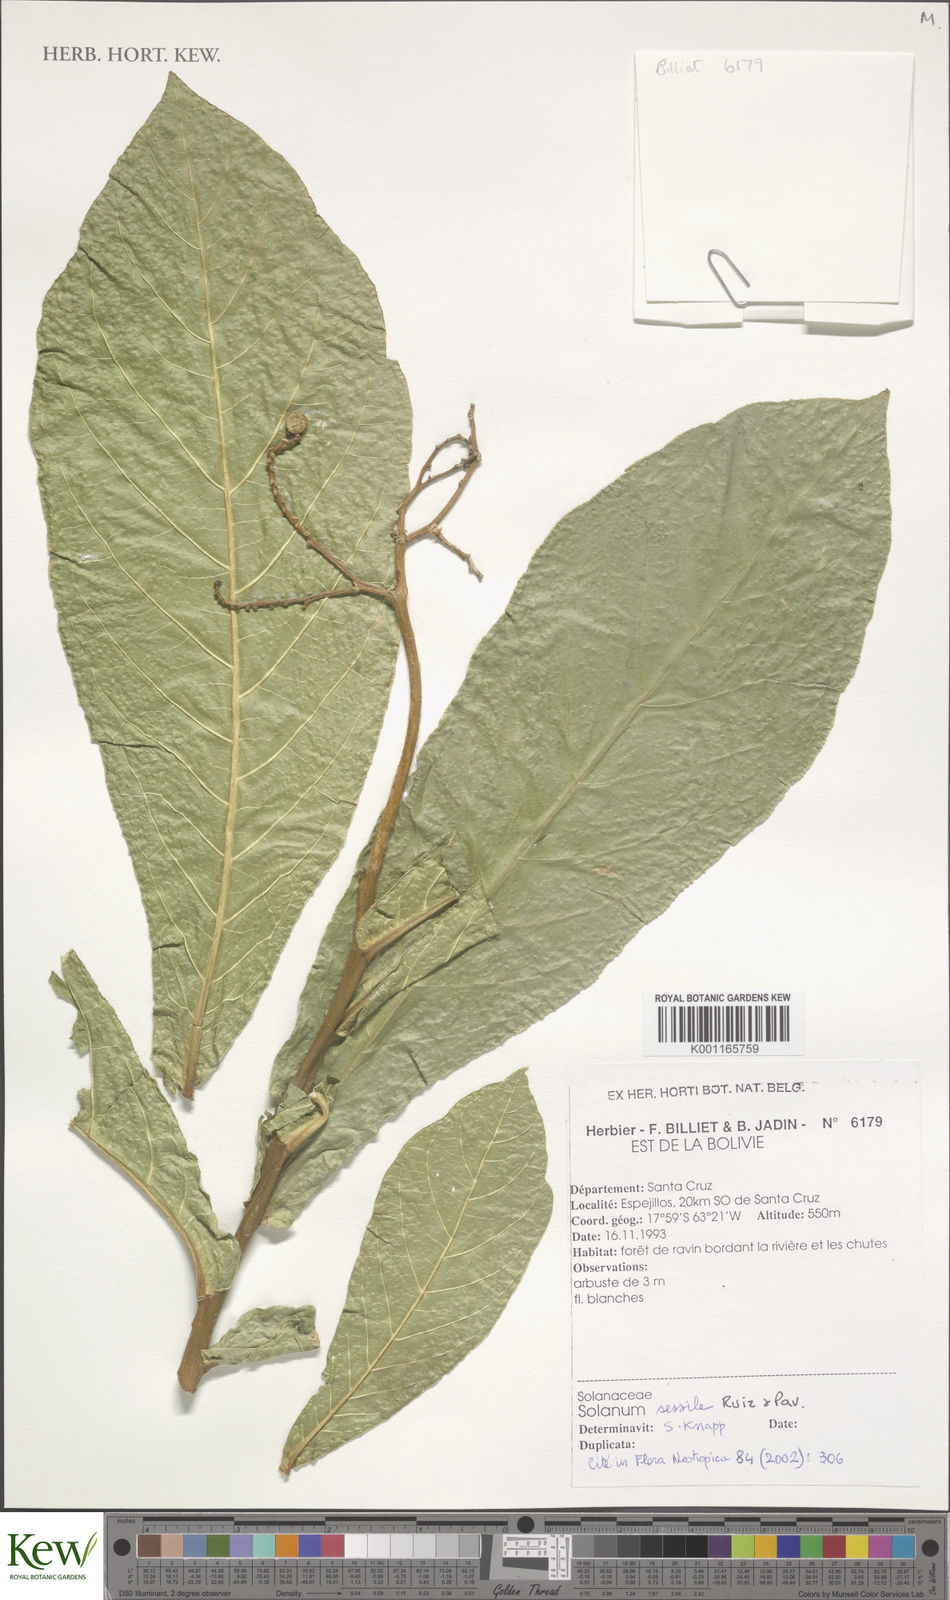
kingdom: Plantae
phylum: Tracheophyta
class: Magnoliopsida
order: Solanales
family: Solanaceae
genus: Solanum
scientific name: Solanum sessile
